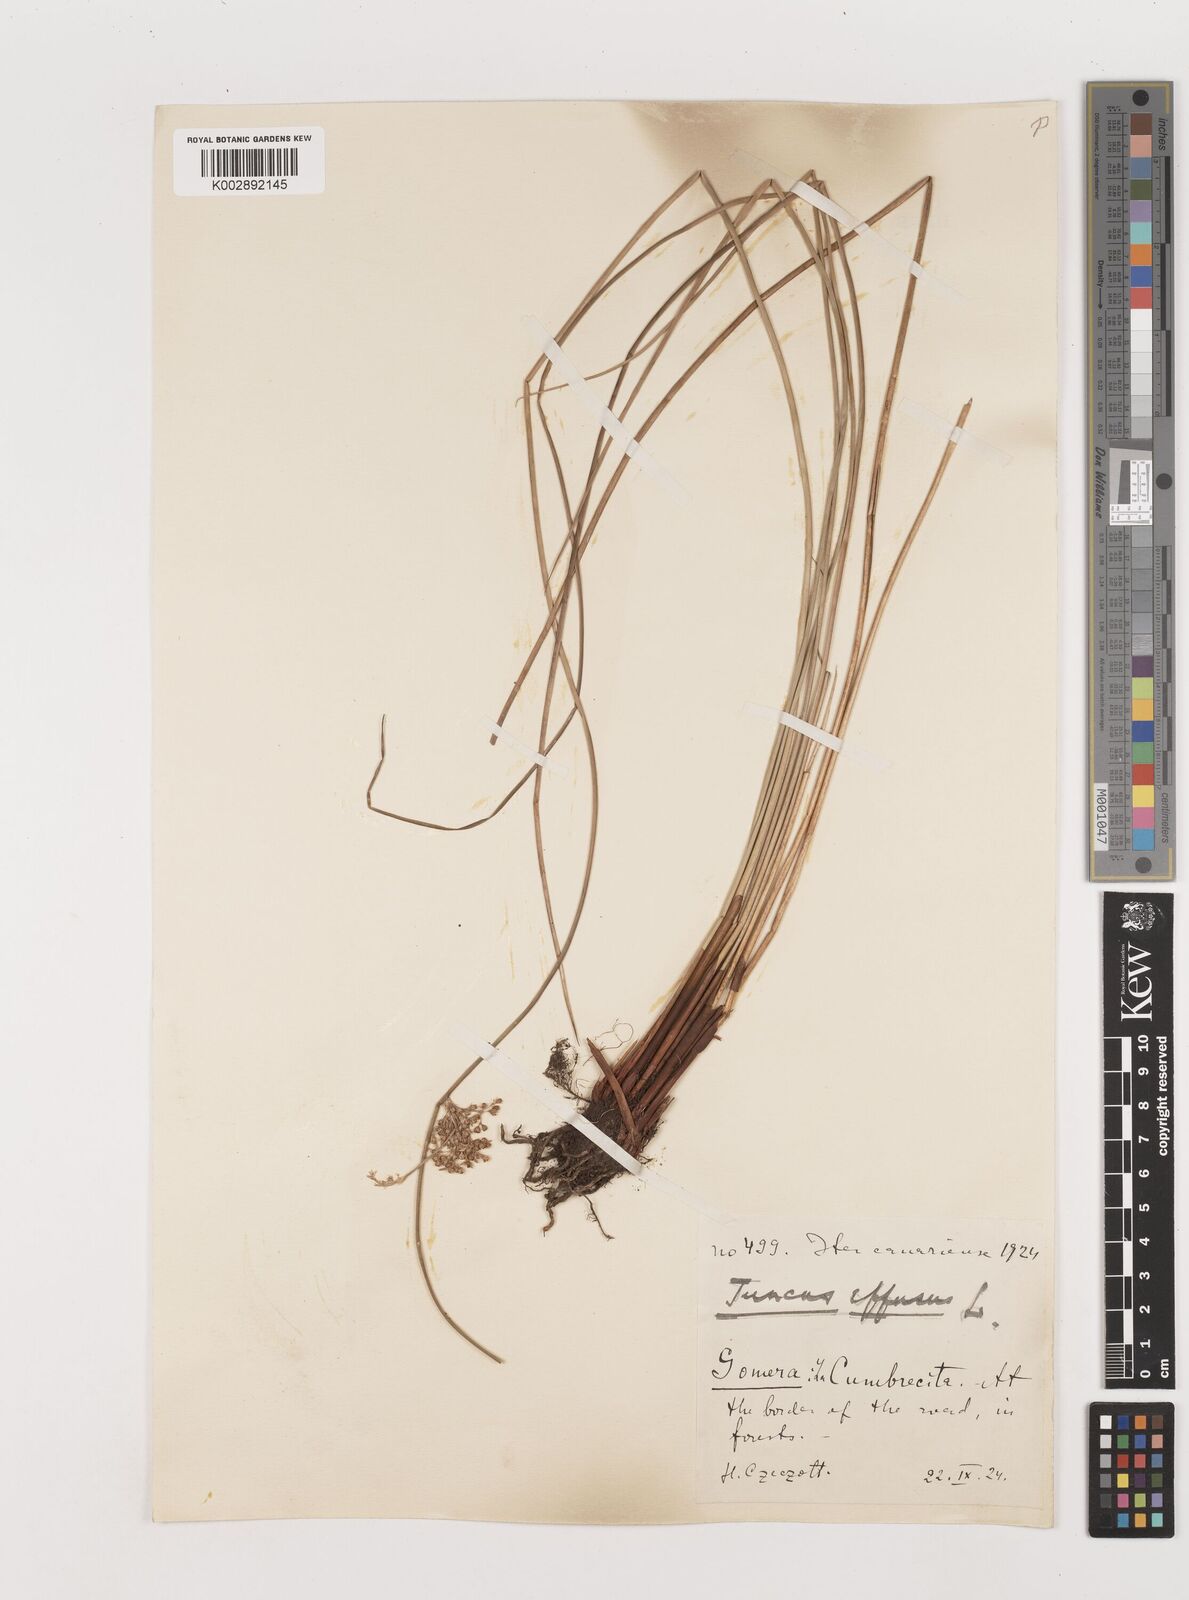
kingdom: Plantae
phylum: Tracheophyta
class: Liliopsida
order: Poales
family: Juncaceae
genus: Juncus
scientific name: Juncus effusus
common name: Soft rush
